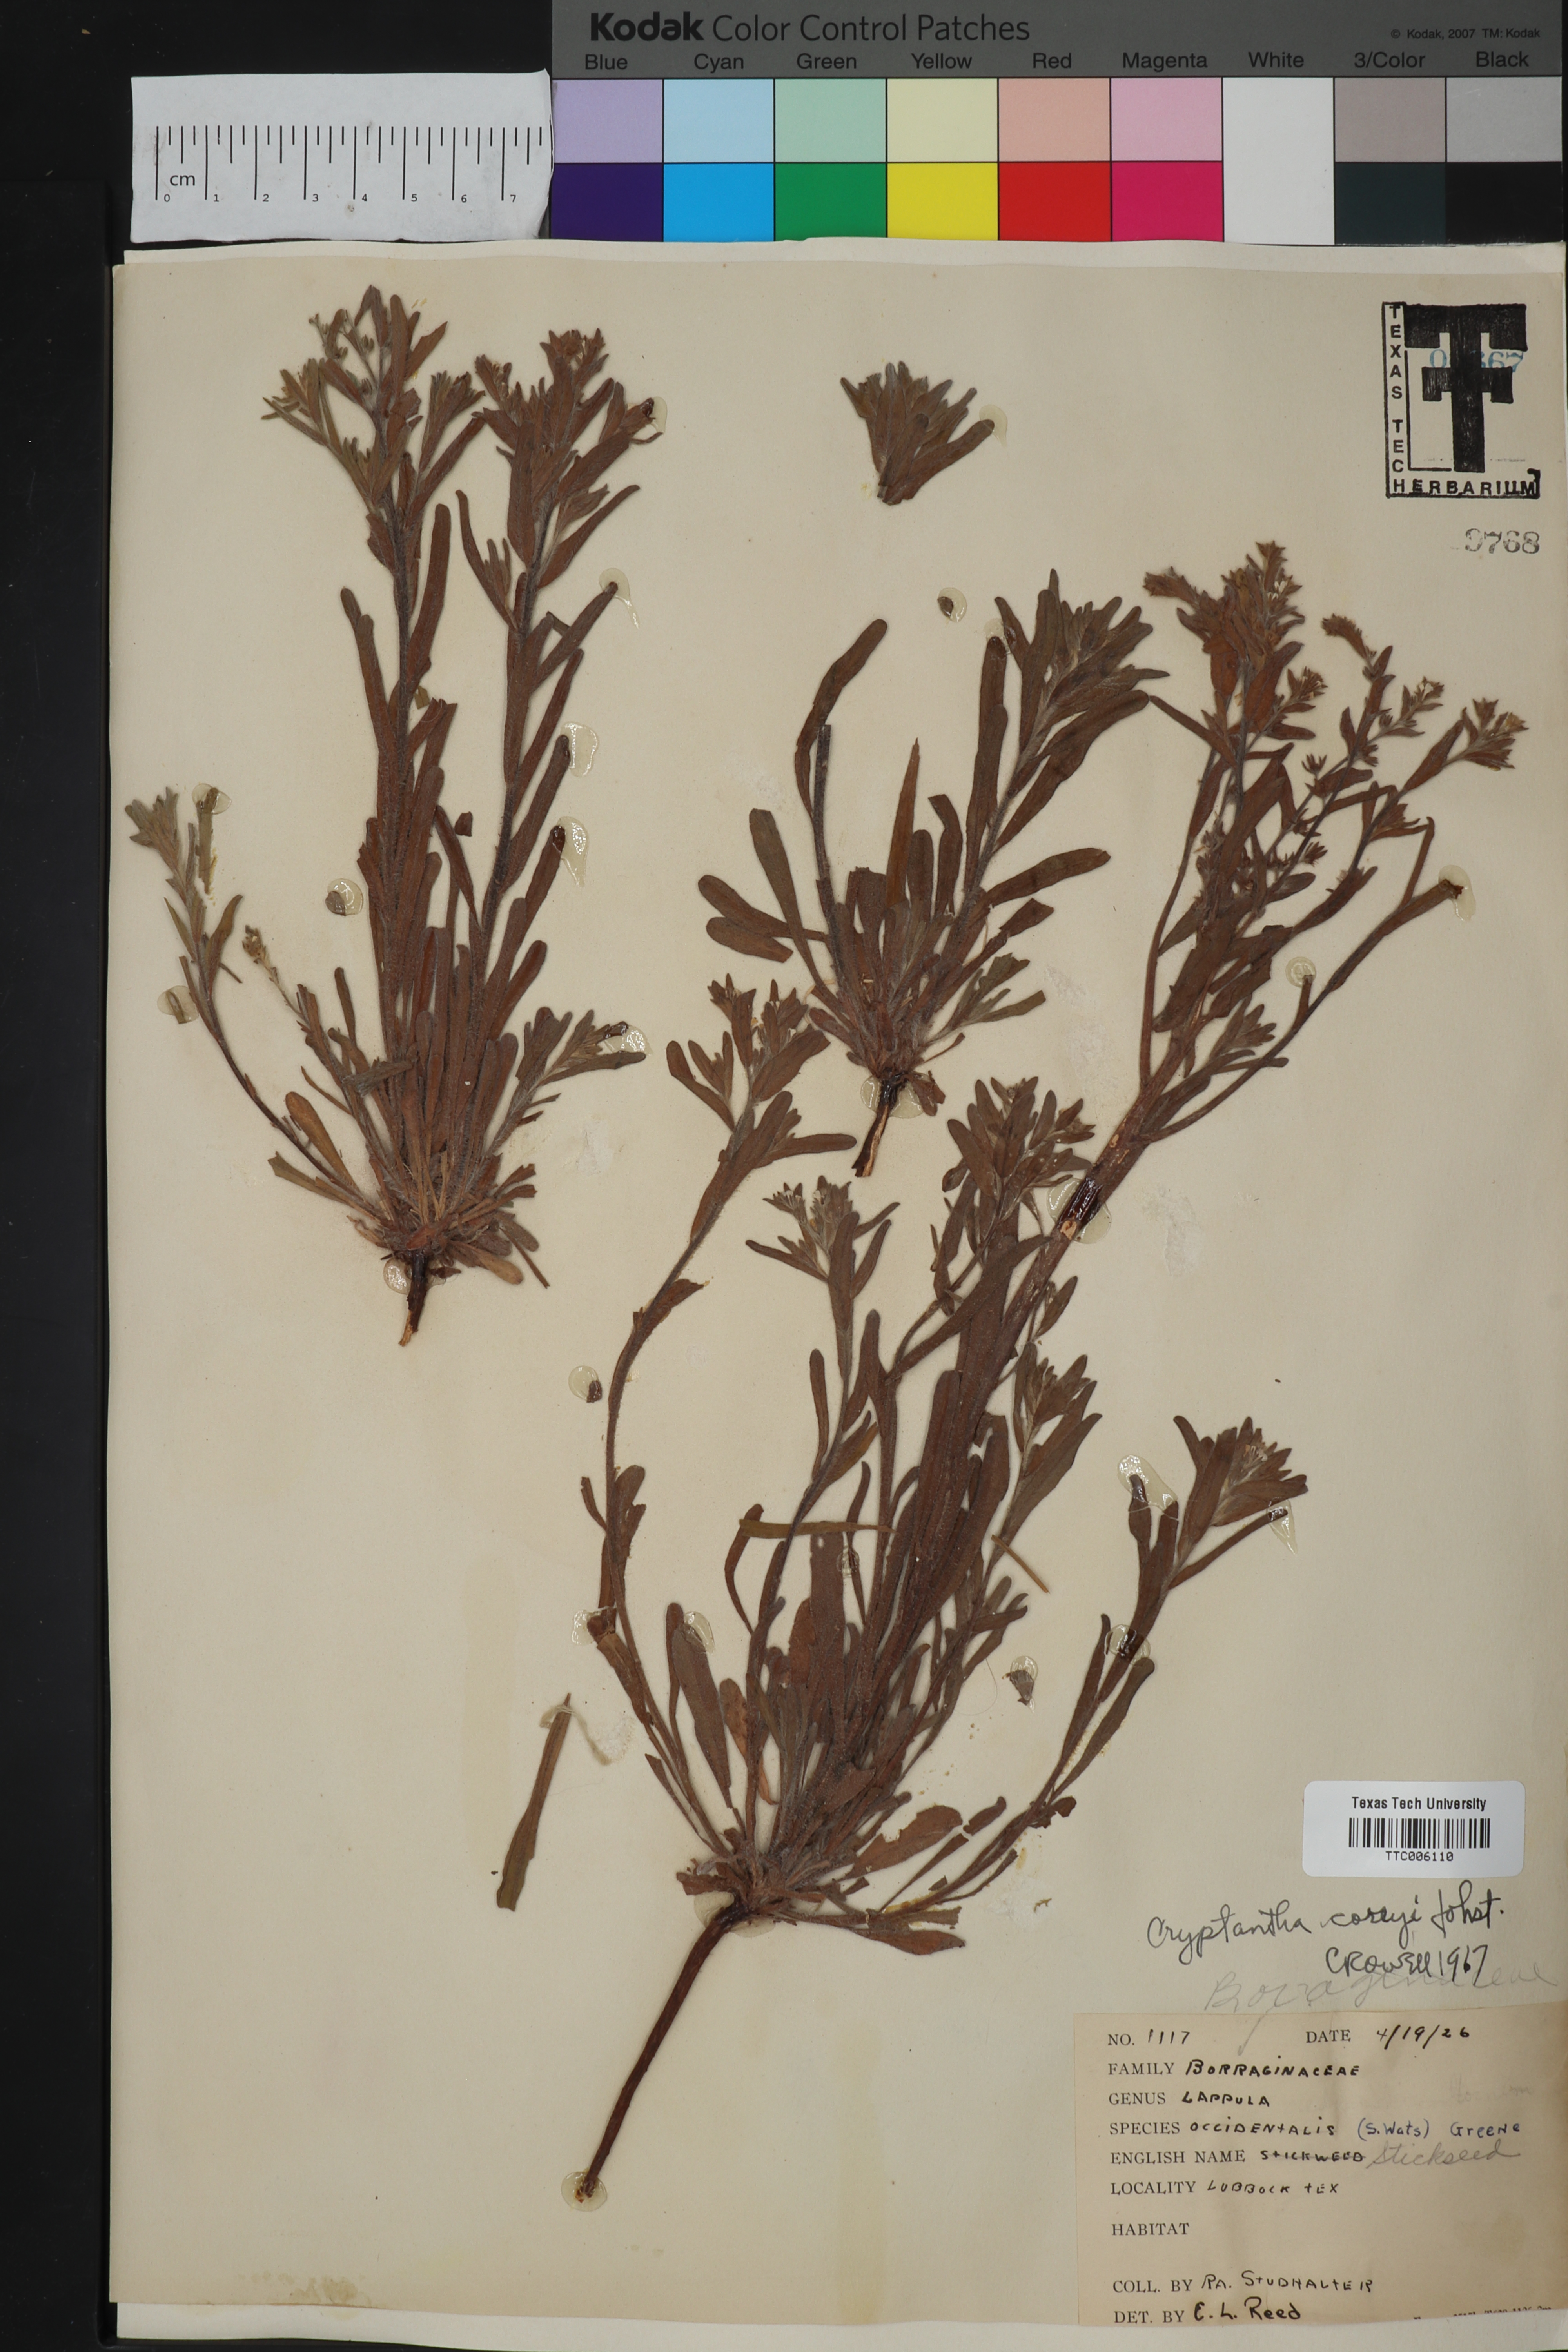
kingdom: Plantae
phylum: Tracheophyta
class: Magnoliopsida
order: Boraginales
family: Boraginaceae
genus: Oreocarya
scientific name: Oreocarya palmeri
